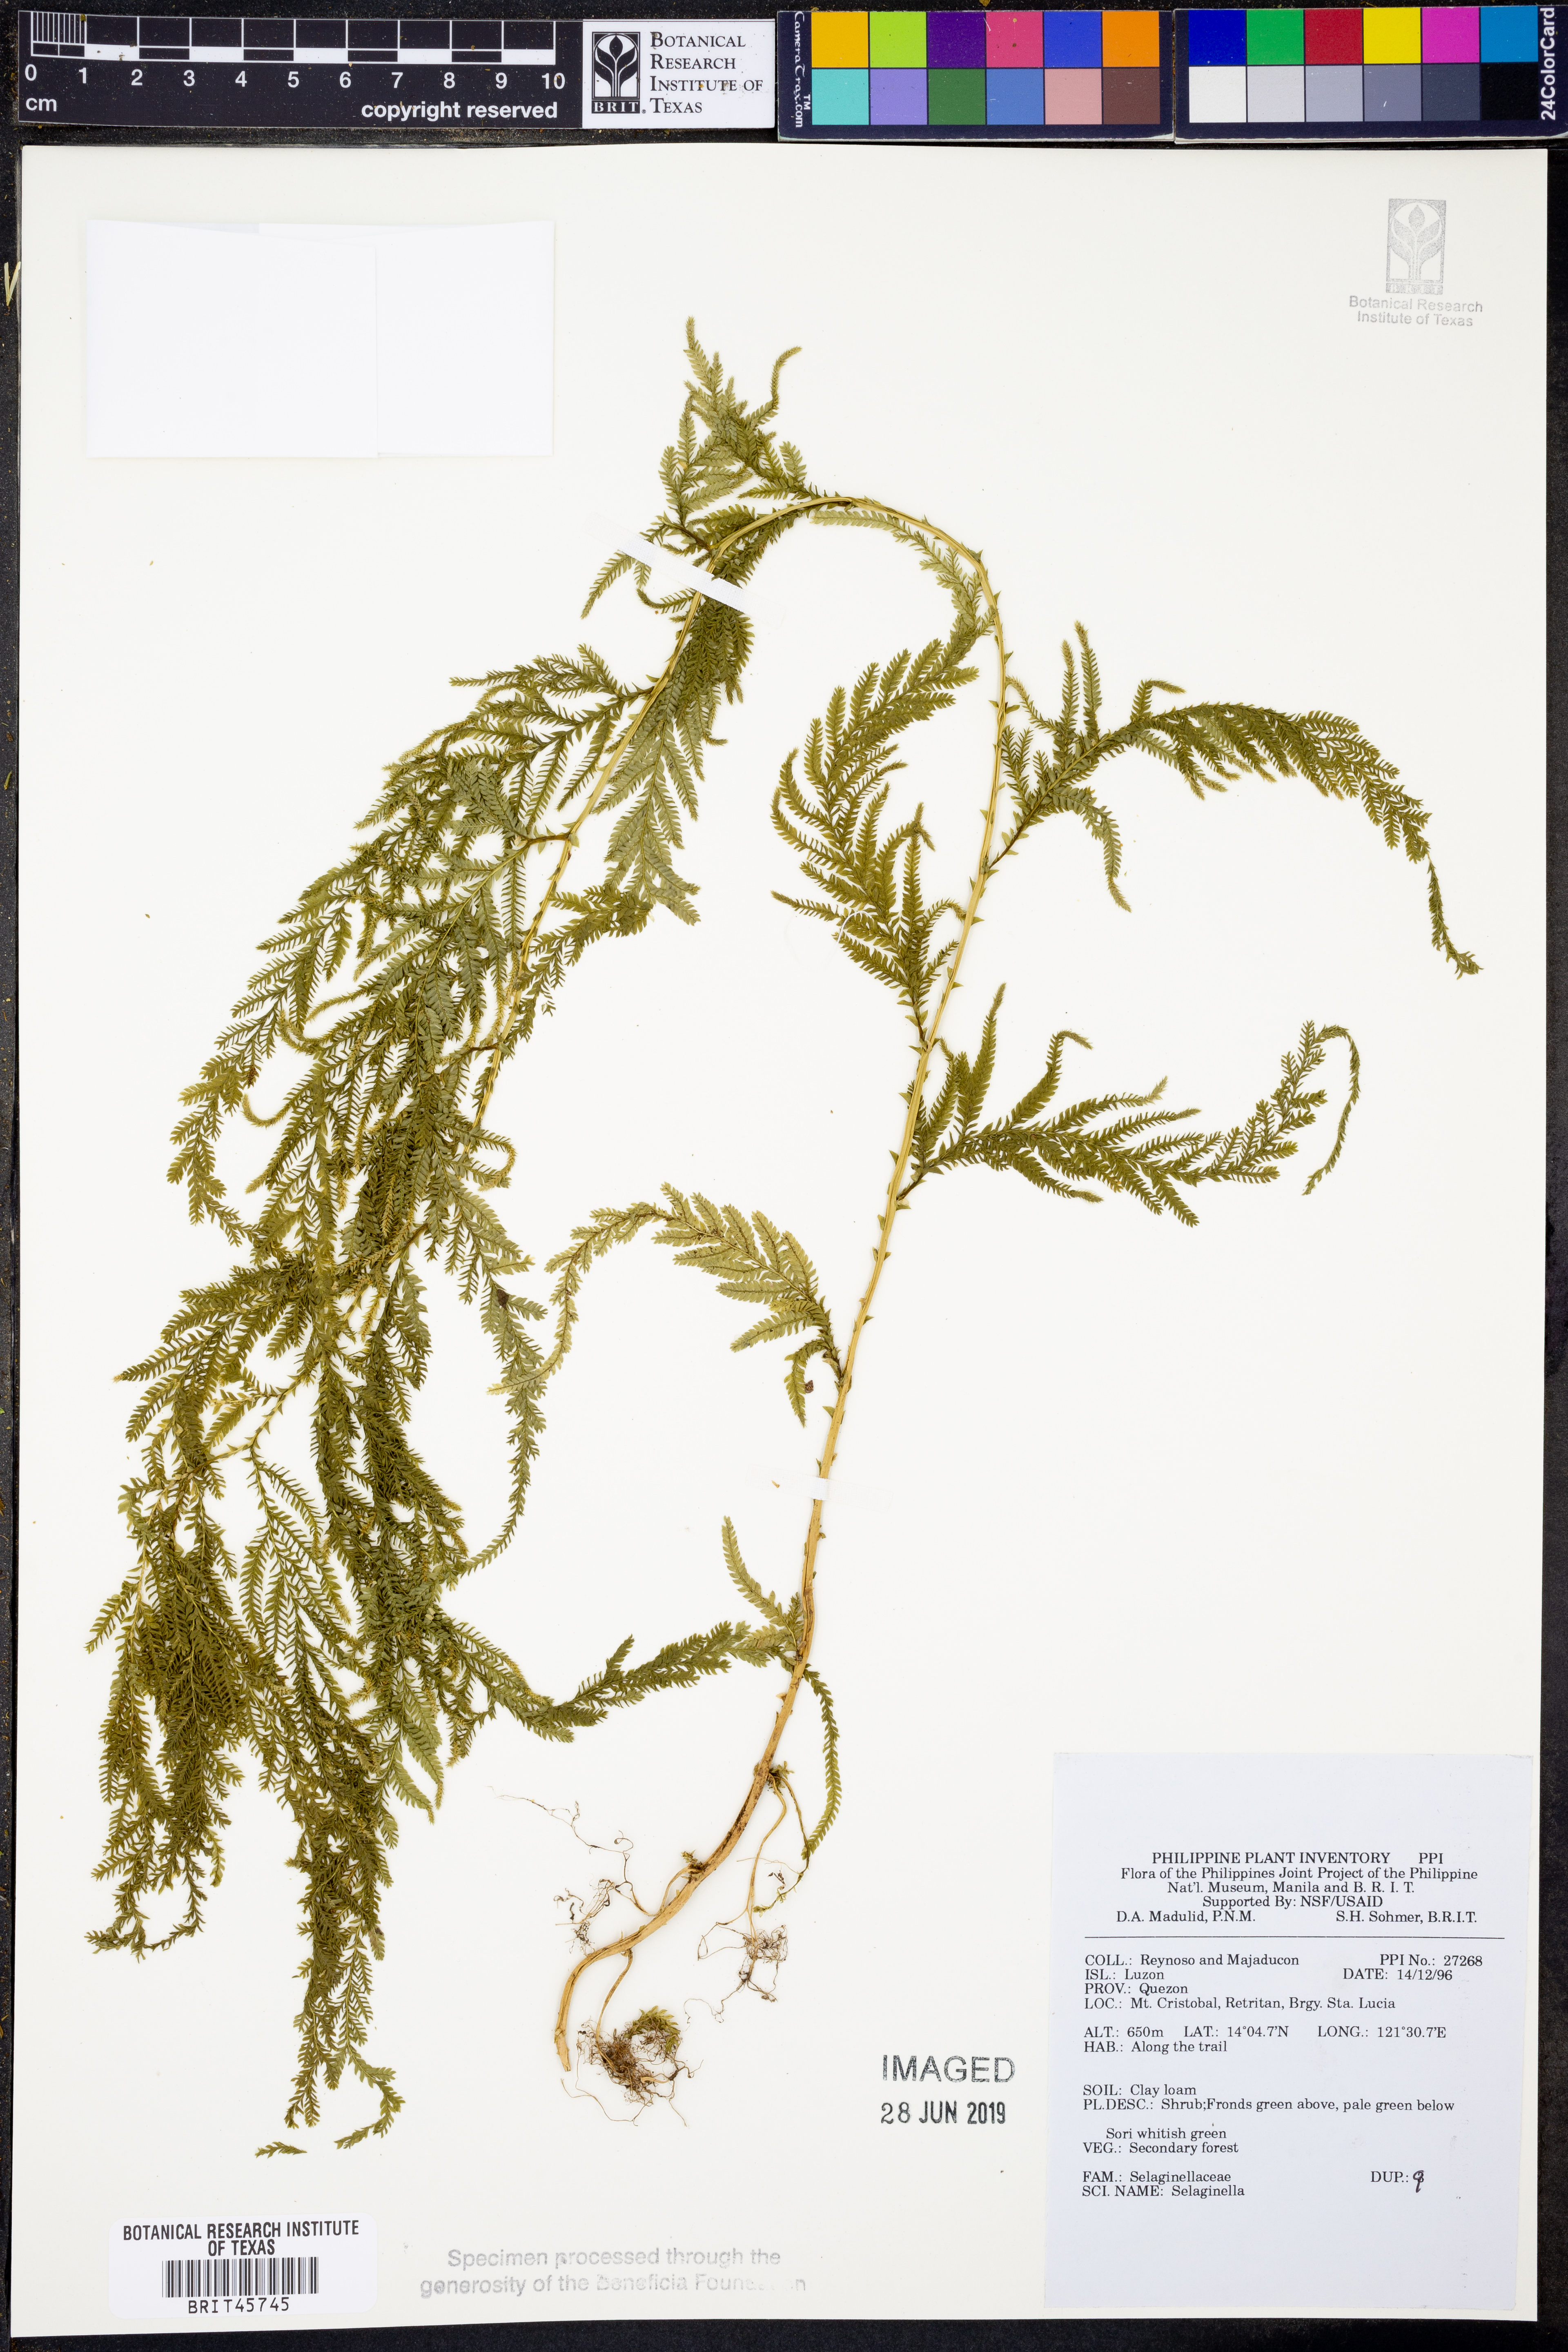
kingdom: Plantae
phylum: Tracheophyta
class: Lycopodiopsida
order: Selaginellales
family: Selaginellaceae
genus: Selaginella
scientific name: Selaginella
